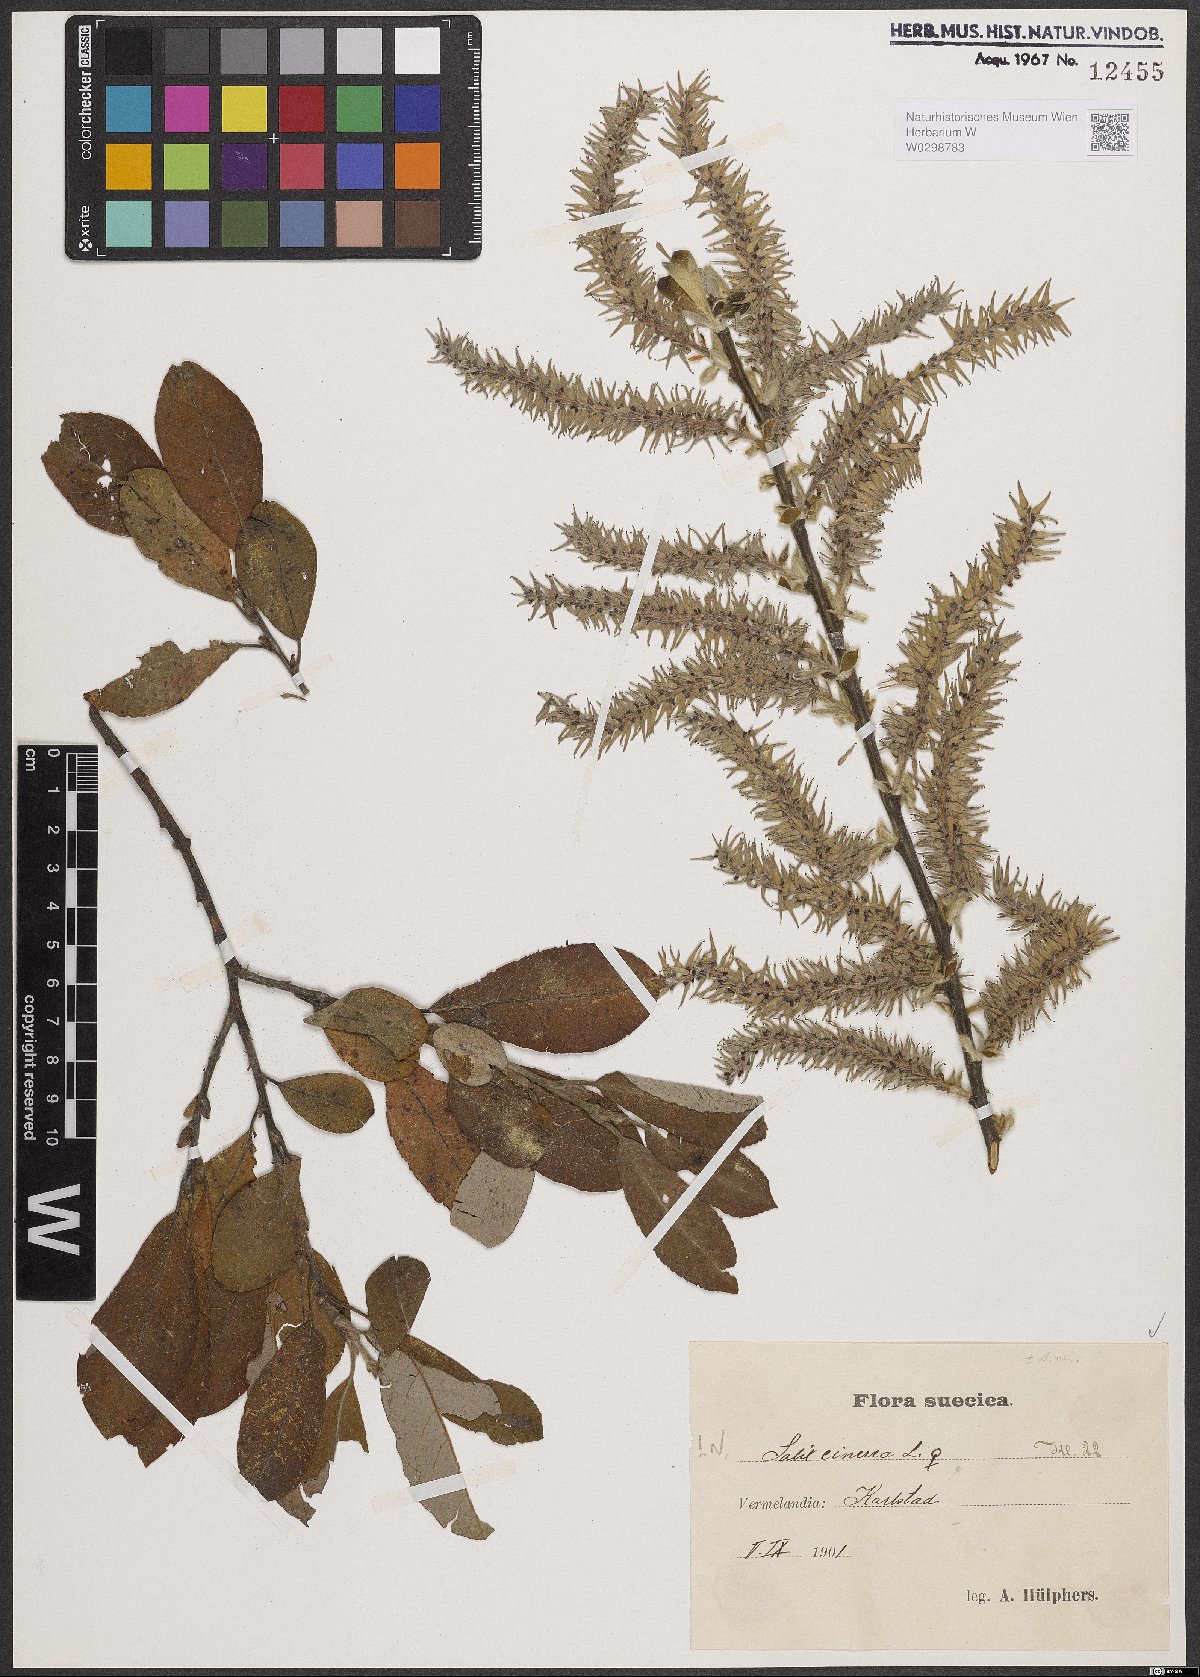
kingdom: Plantae
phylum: Tracheophyta
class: Magnoliopsida
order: Malpighiales
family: Salicaceae
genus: Salix
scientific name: Salix cinerea
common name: Common sallow
